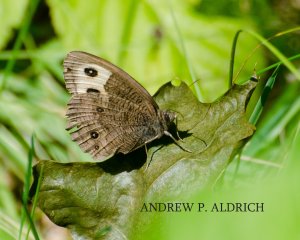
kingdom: Animalia
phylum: Arthropoda
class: Insecta
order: Lepidoptera
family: Nymphalidae
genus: Cercyonis
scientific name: Cercyonis pegala
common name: Common Wood-Nymph
